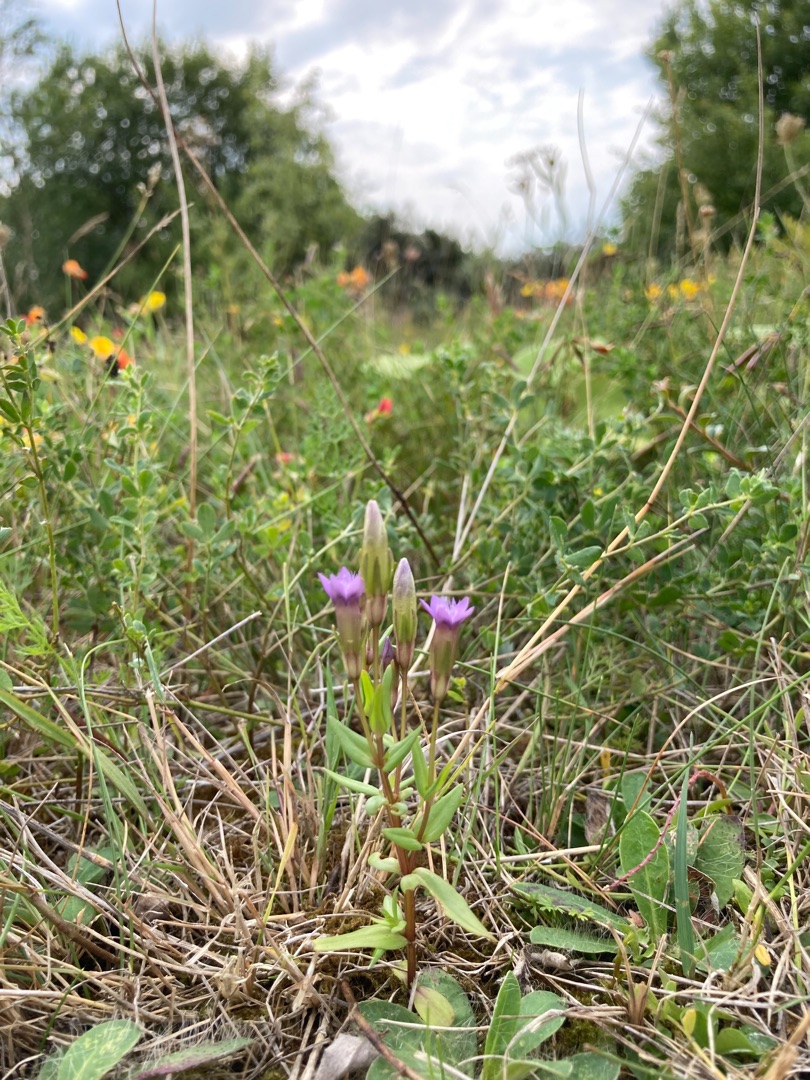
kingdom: Plantae
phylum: Tracheophyta
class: Magnoliopsida
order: Gentianales
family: Gentianaceae
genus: Gentianella
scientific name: Gentianella amarella
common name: Smalbægret ensian
